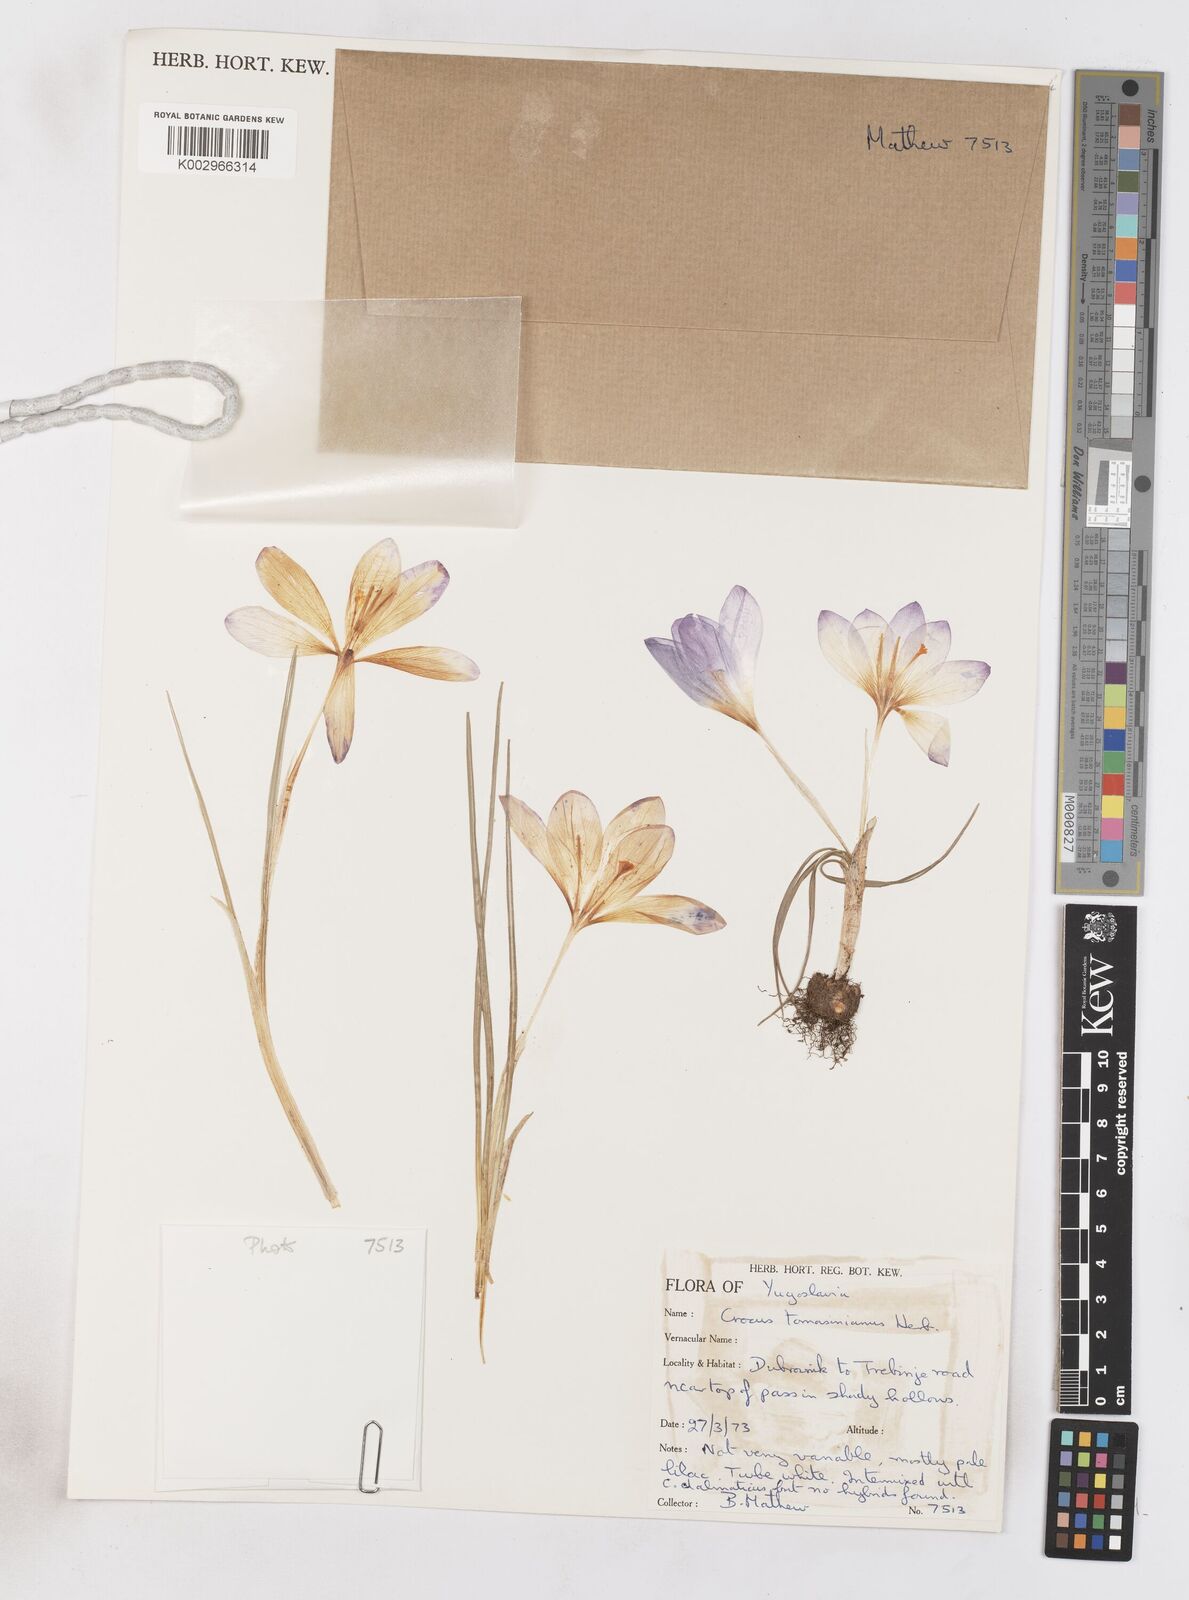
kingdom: Plantae
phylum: Tracheophyta
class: Liliopsida
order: Asparagales
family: Iridaceae
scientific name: Iridaceae
